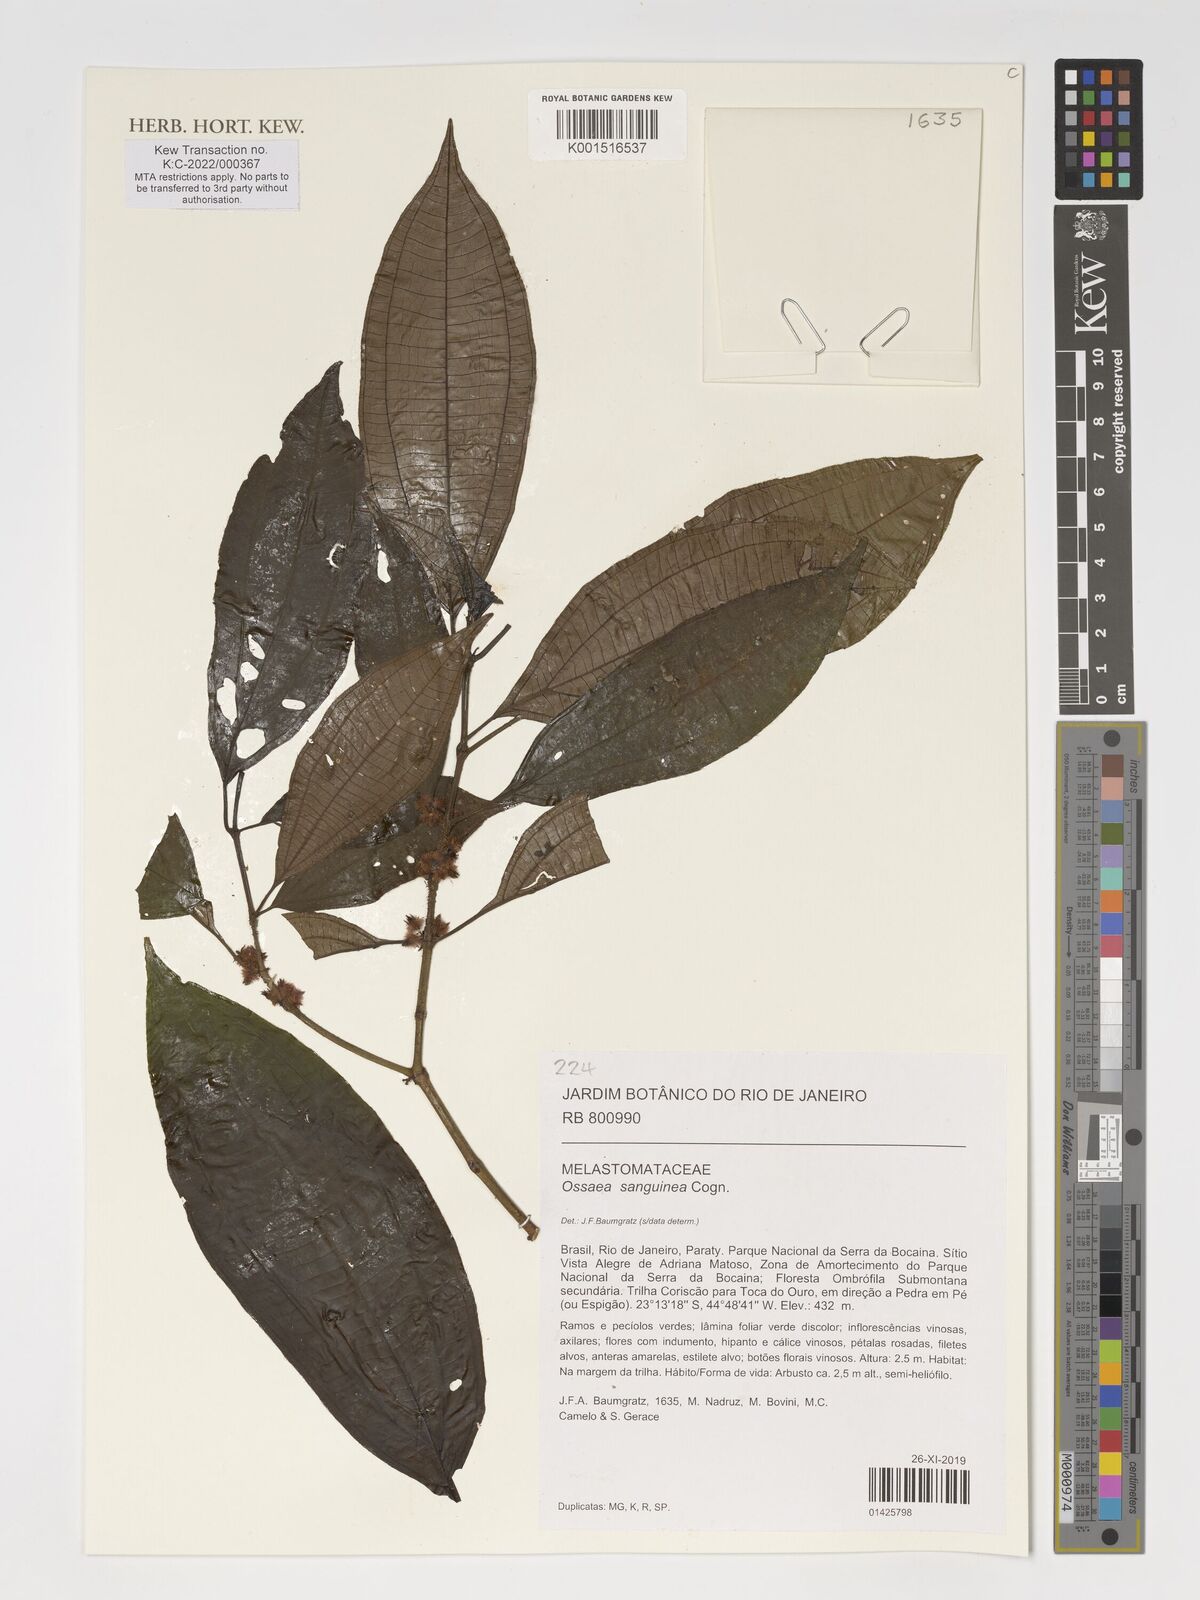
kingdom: Plantae
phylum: Tracheophyta
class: Magnoliopsida
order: Myrtales
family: Melastomataceae
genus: Miconia
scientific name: Miconia secunsanguinea
